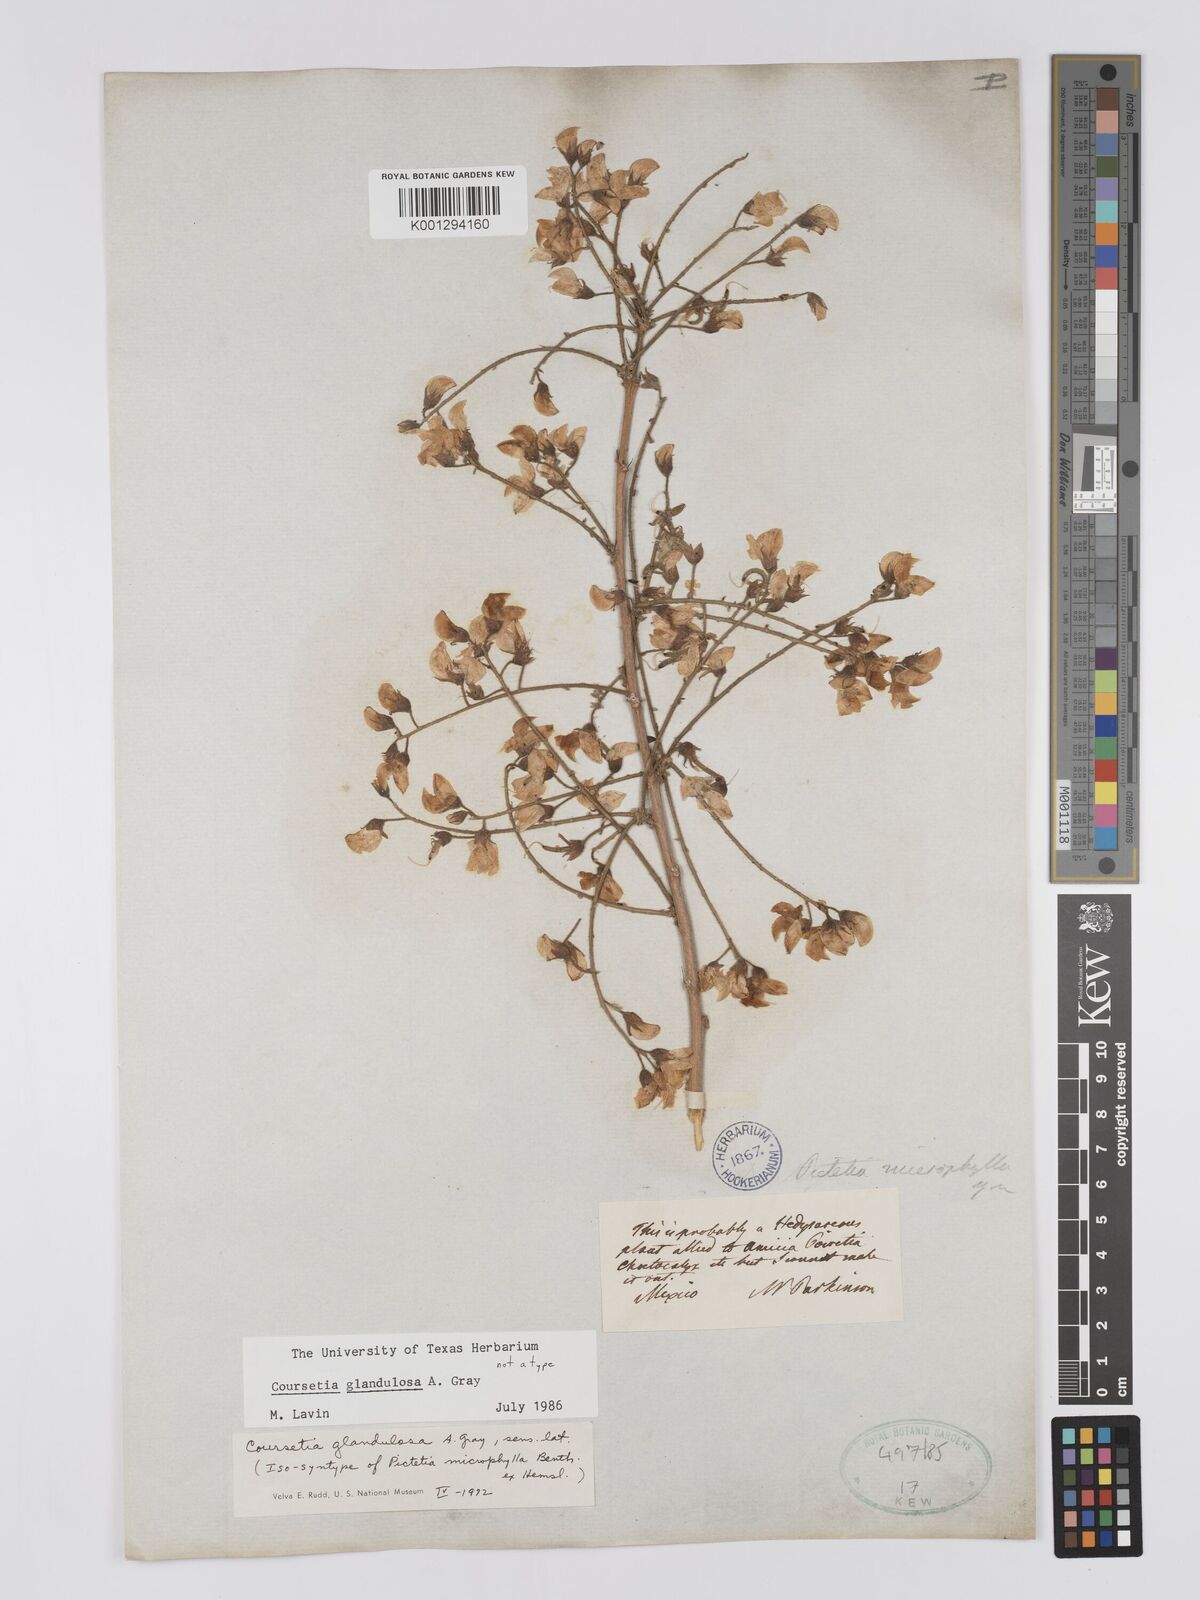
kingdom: Plantae
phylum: Tracheophyta
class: Magnoliopsida
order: Fabales
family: Fabaceae
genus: Coursetia
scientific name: Coursetia glandulosa
